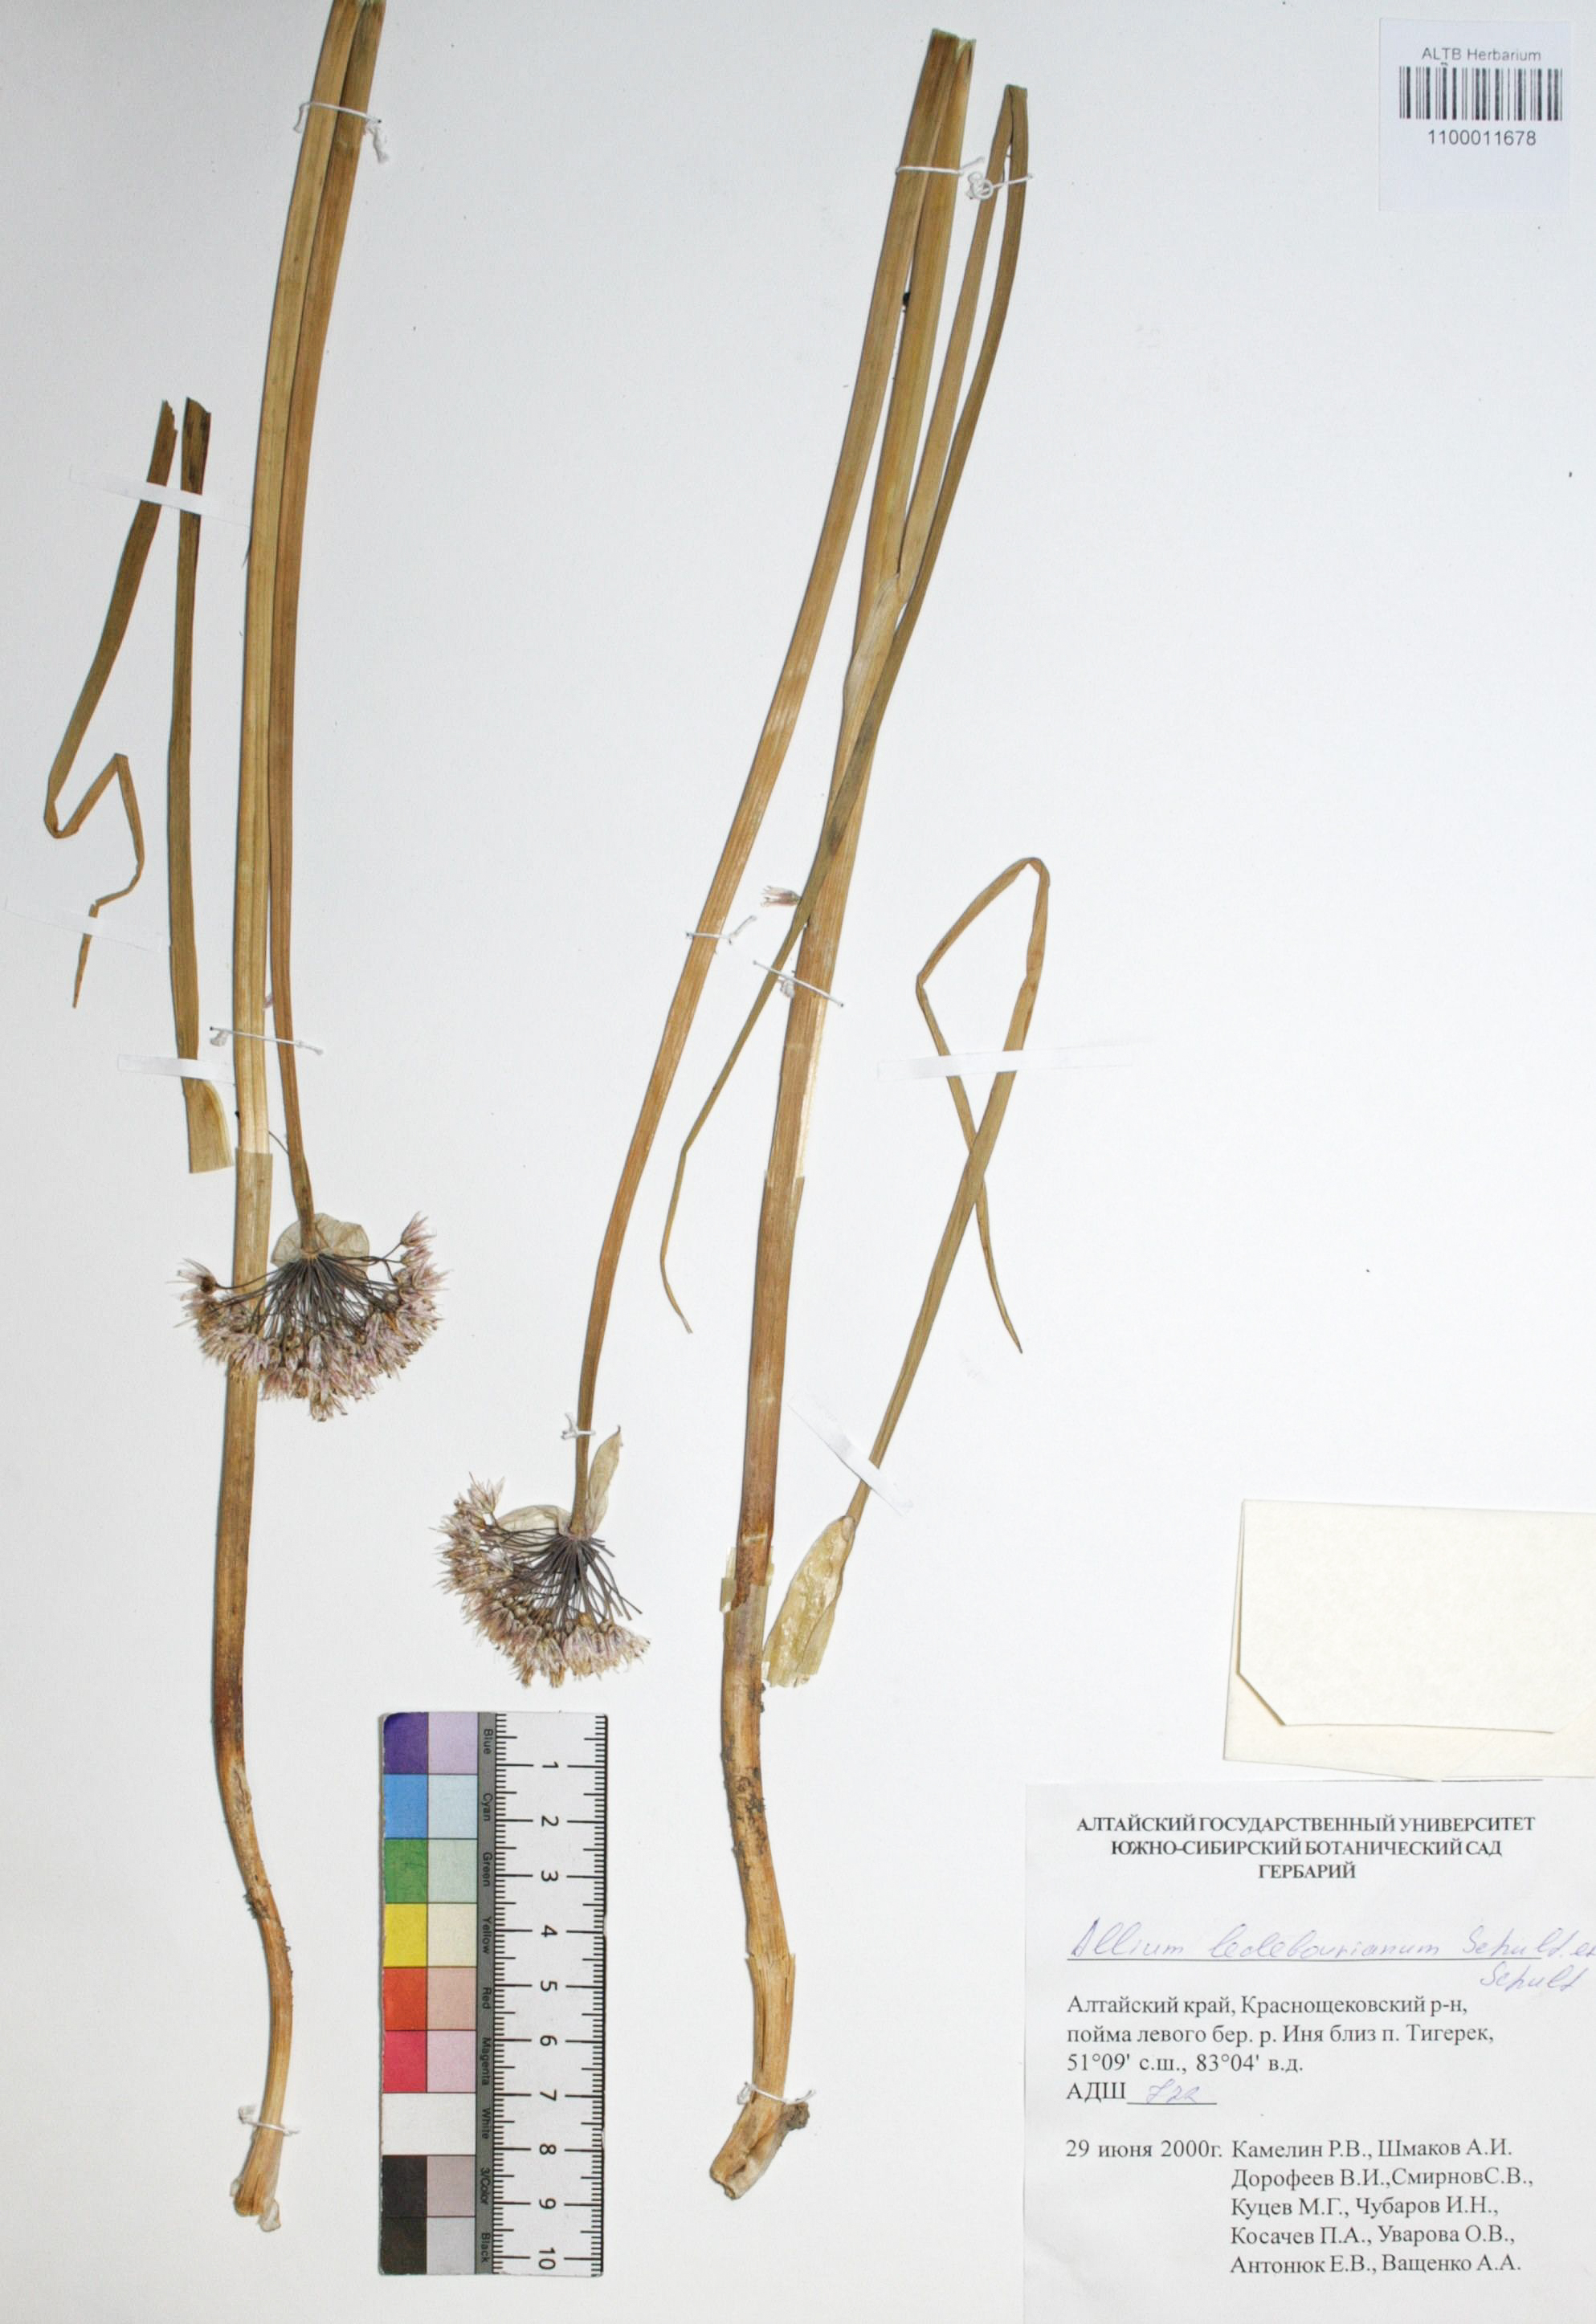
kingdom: Plantae
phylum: Tracheophyta
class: Liliopsida
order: Asparagales
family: Amaryllidaceae
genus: Allium
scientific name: Allium ledebourianum
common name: Ledebour chive
